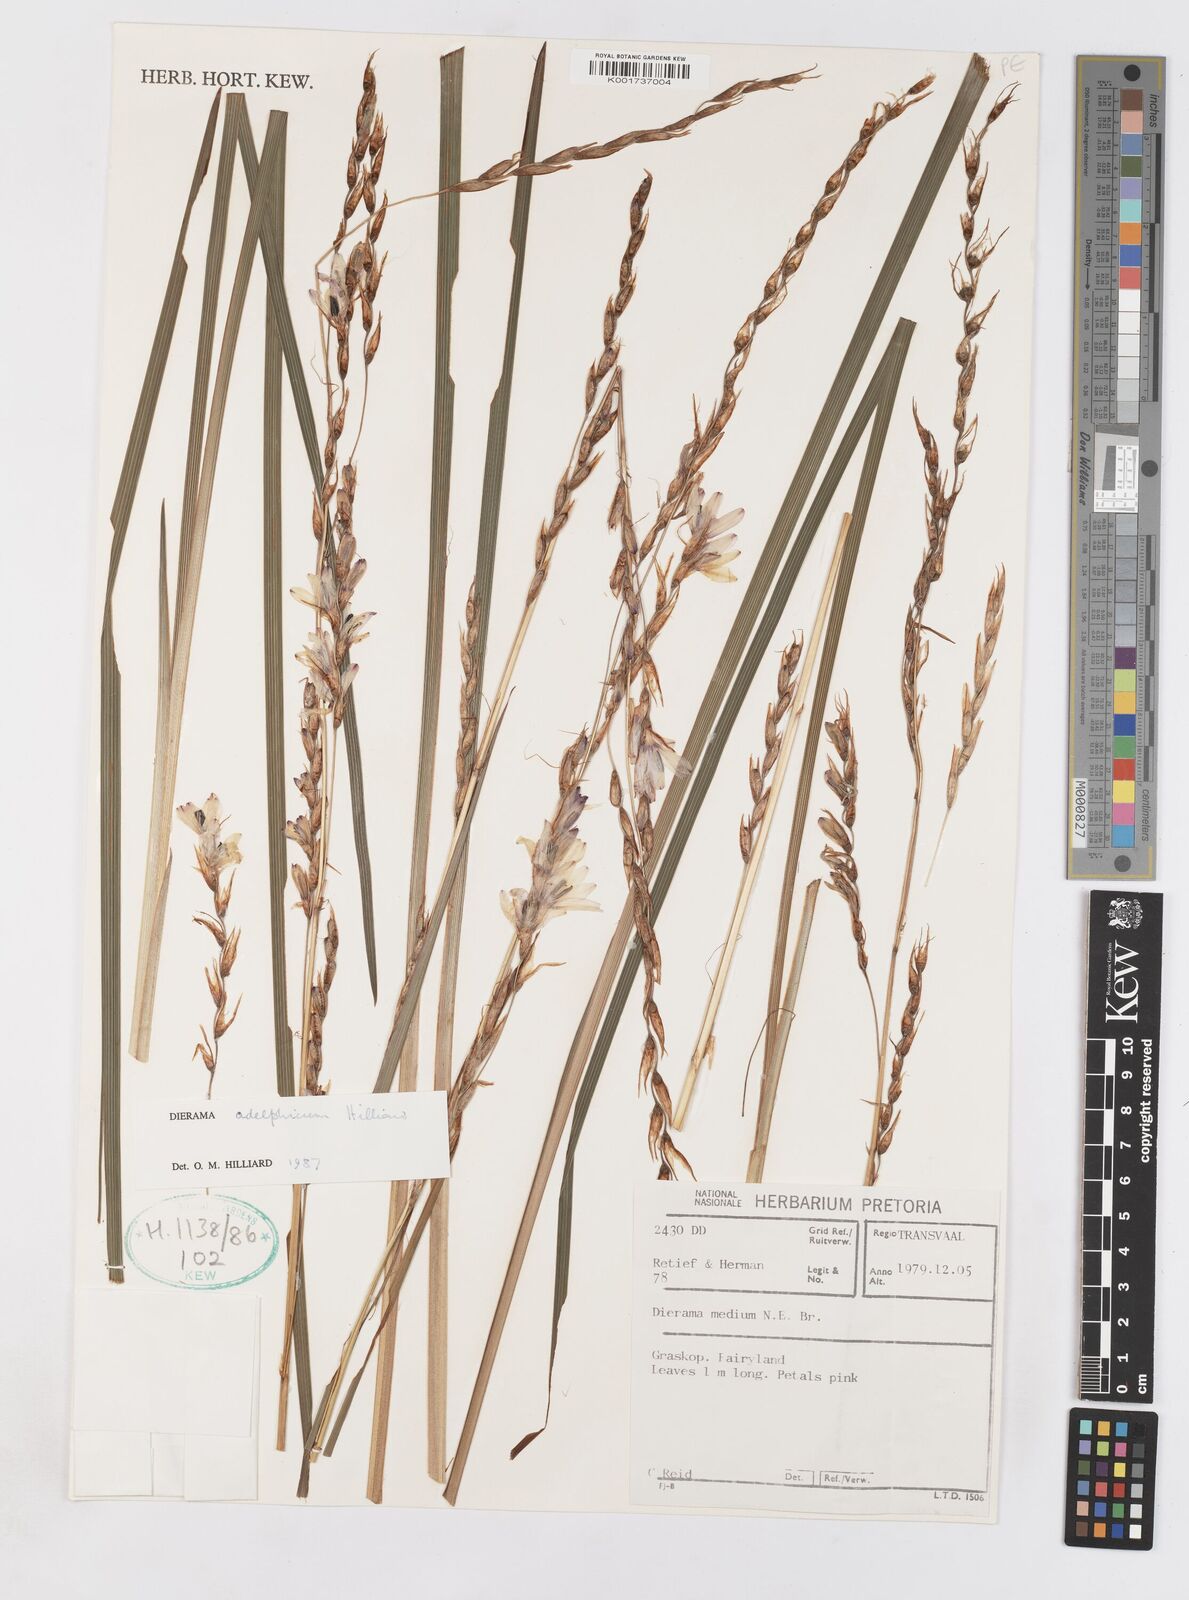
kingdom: Plantae
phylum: Tracheophyta
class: Liliopsida
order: Asparagales
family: Iridaceae
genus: Dierama
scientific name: Dierama adelphicum
